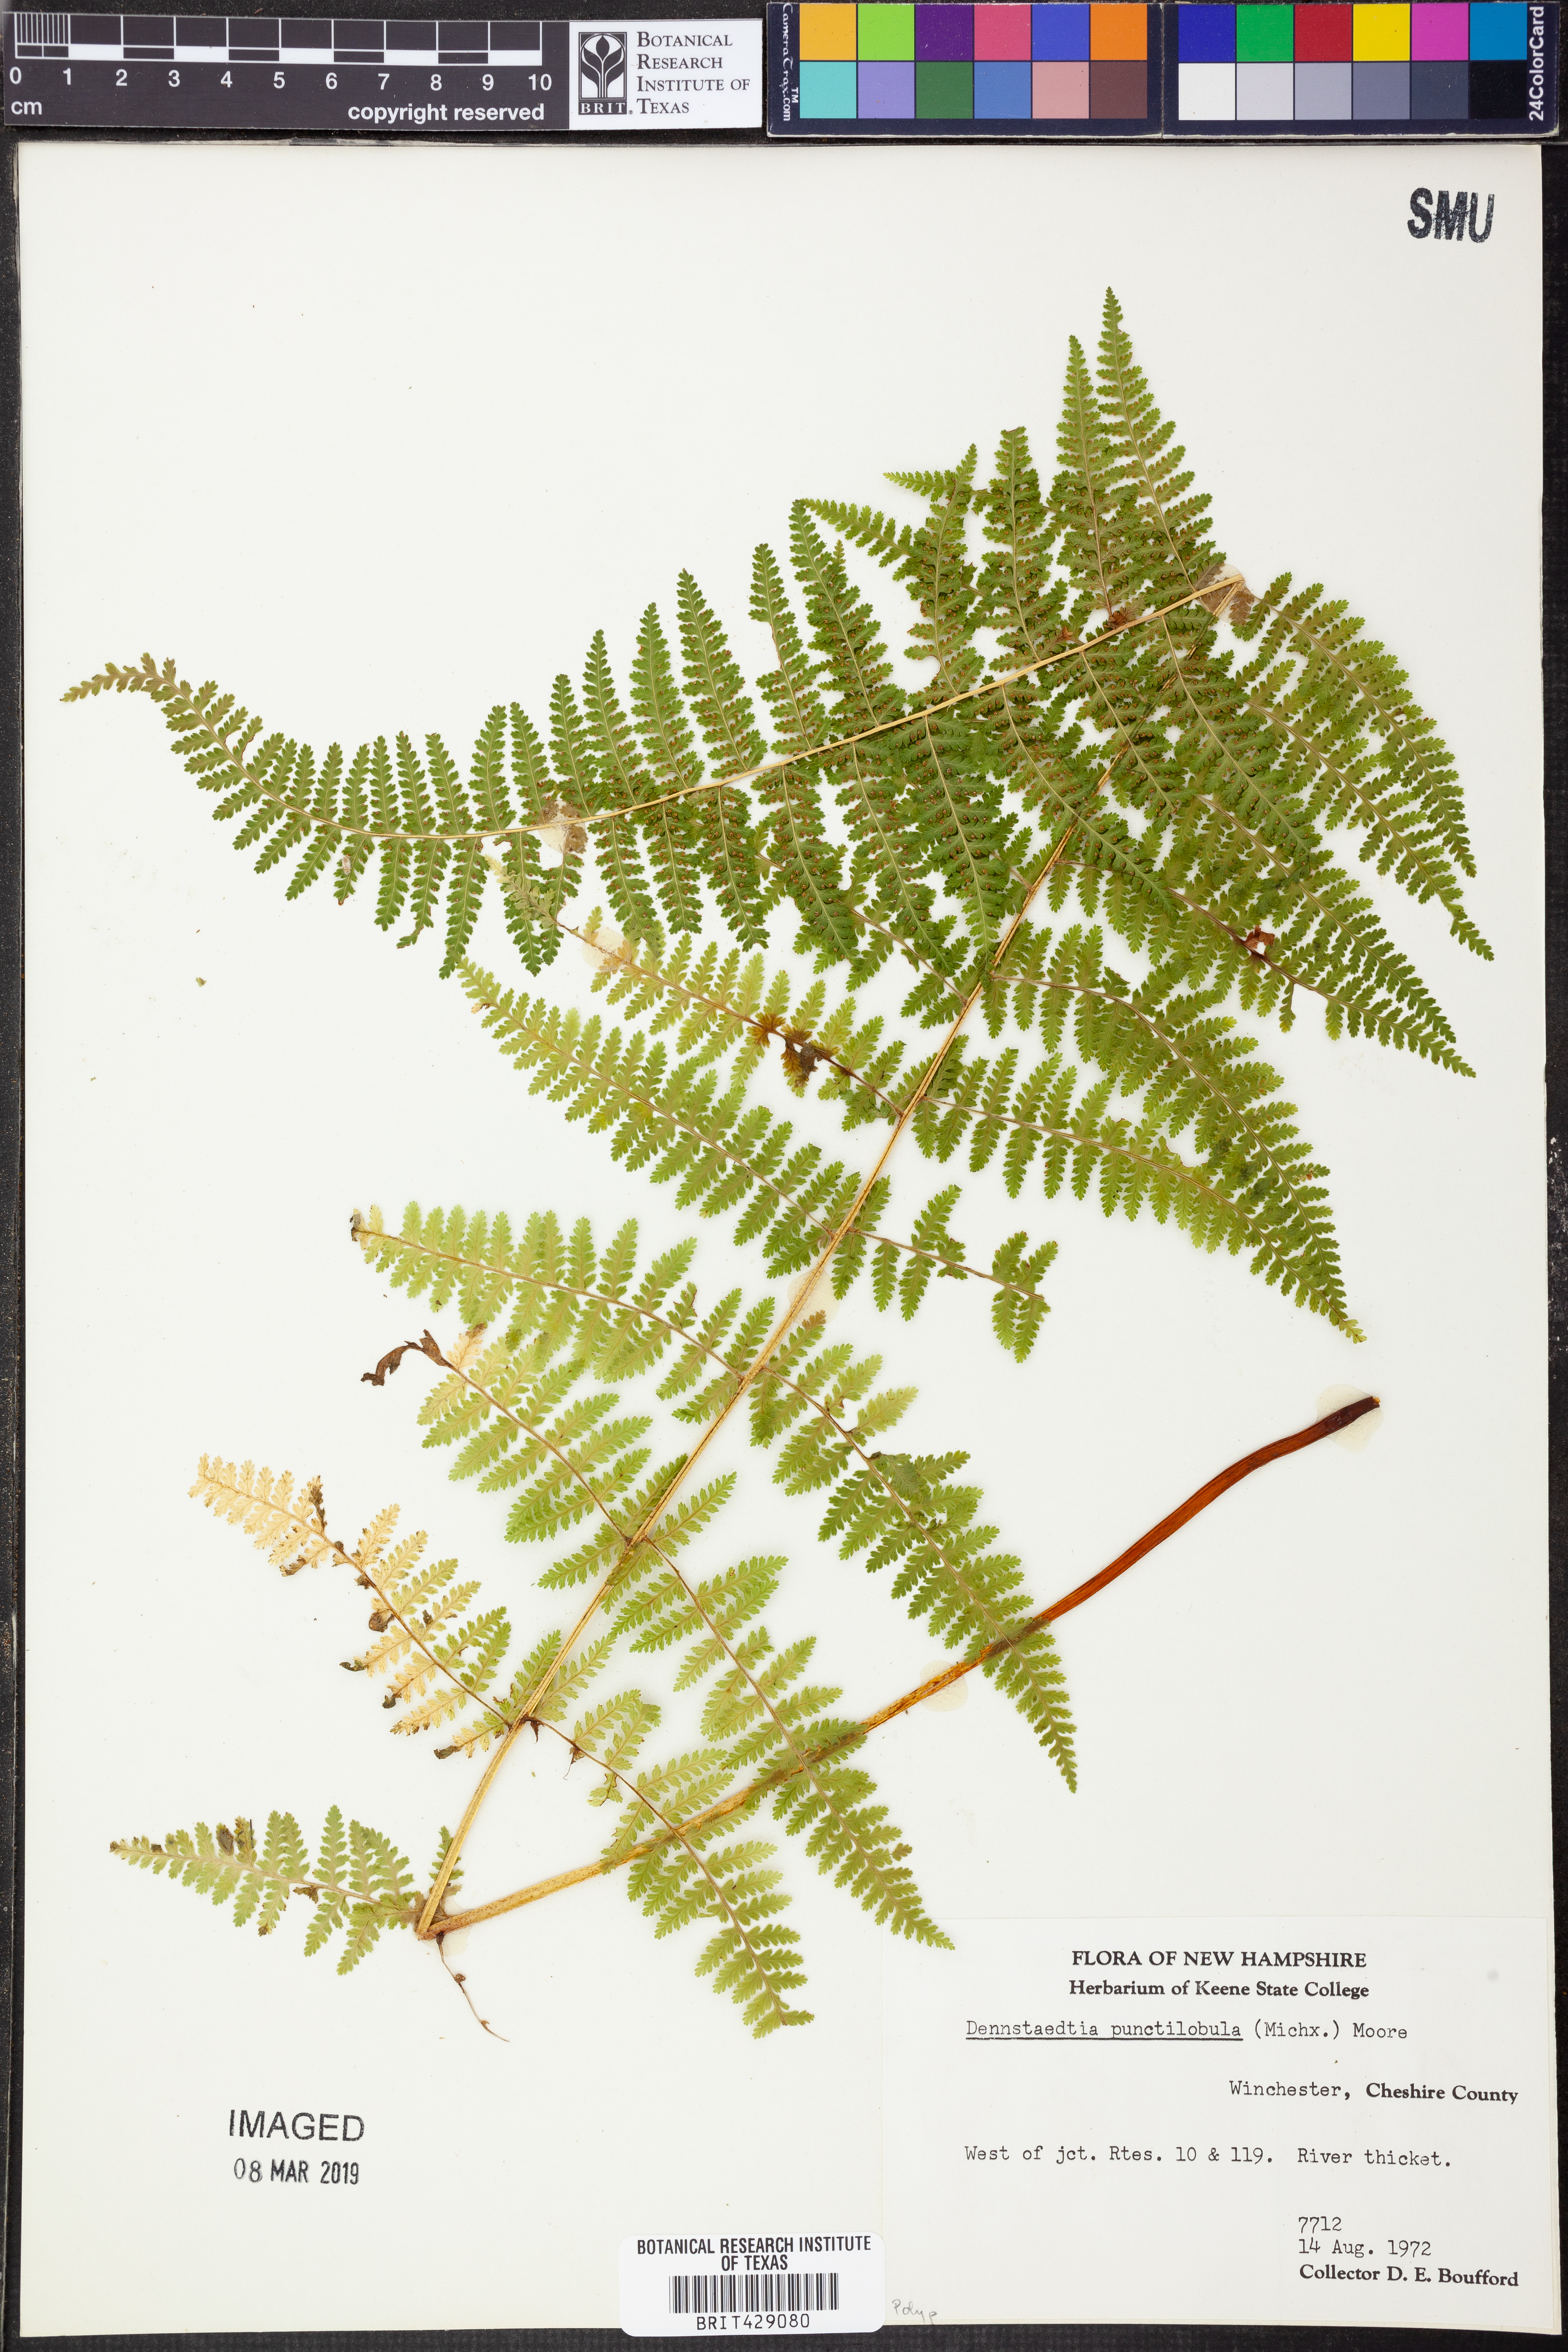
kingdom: Plantae
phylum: Tracheophyta
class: Polypodiopsida
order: Polypodiales
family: Dennstaedtiaceae
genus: Sitobolium
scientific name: Sitobolium punctilobum
